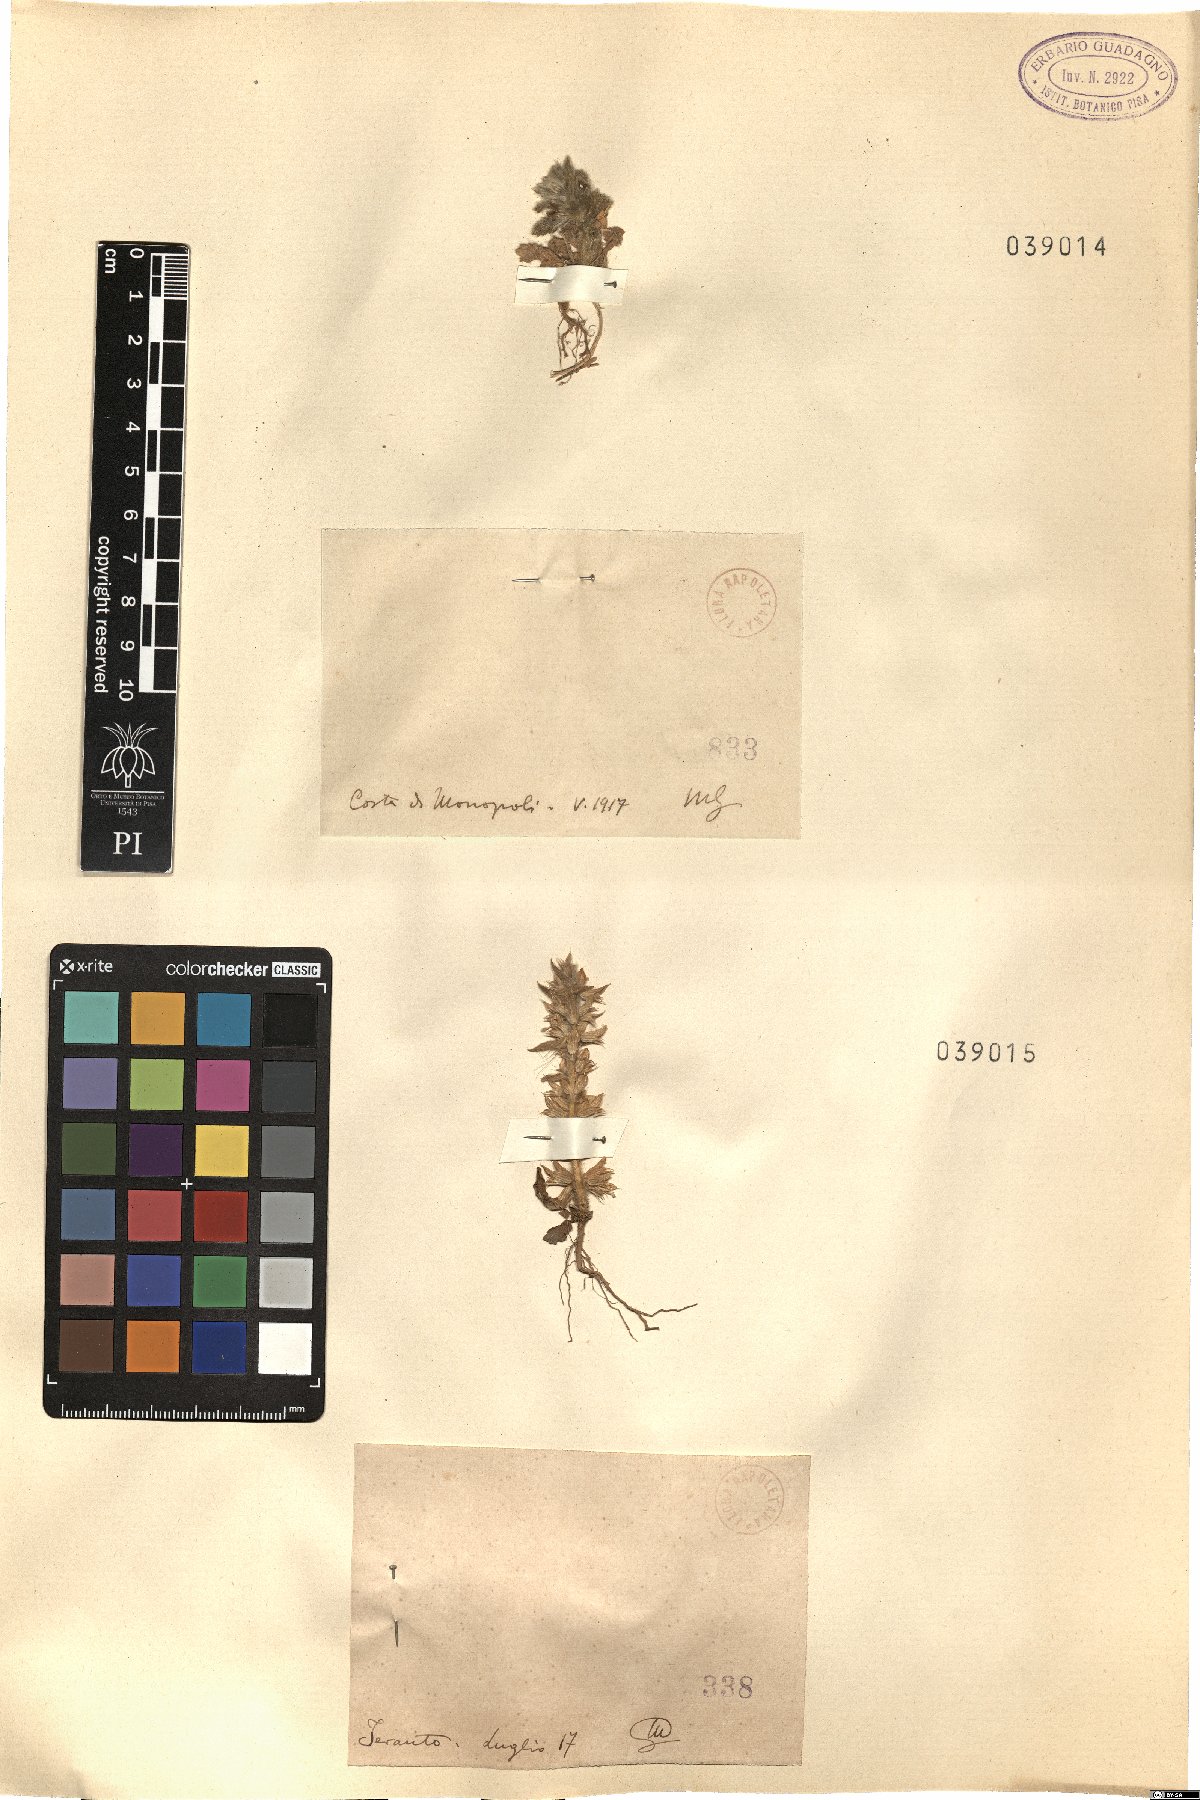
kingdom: Plantae
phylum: Tracheophyta
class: Magnoliopsida
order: Lamiales
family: Lamiaceae
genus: Sideritis
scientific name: Sideritis
